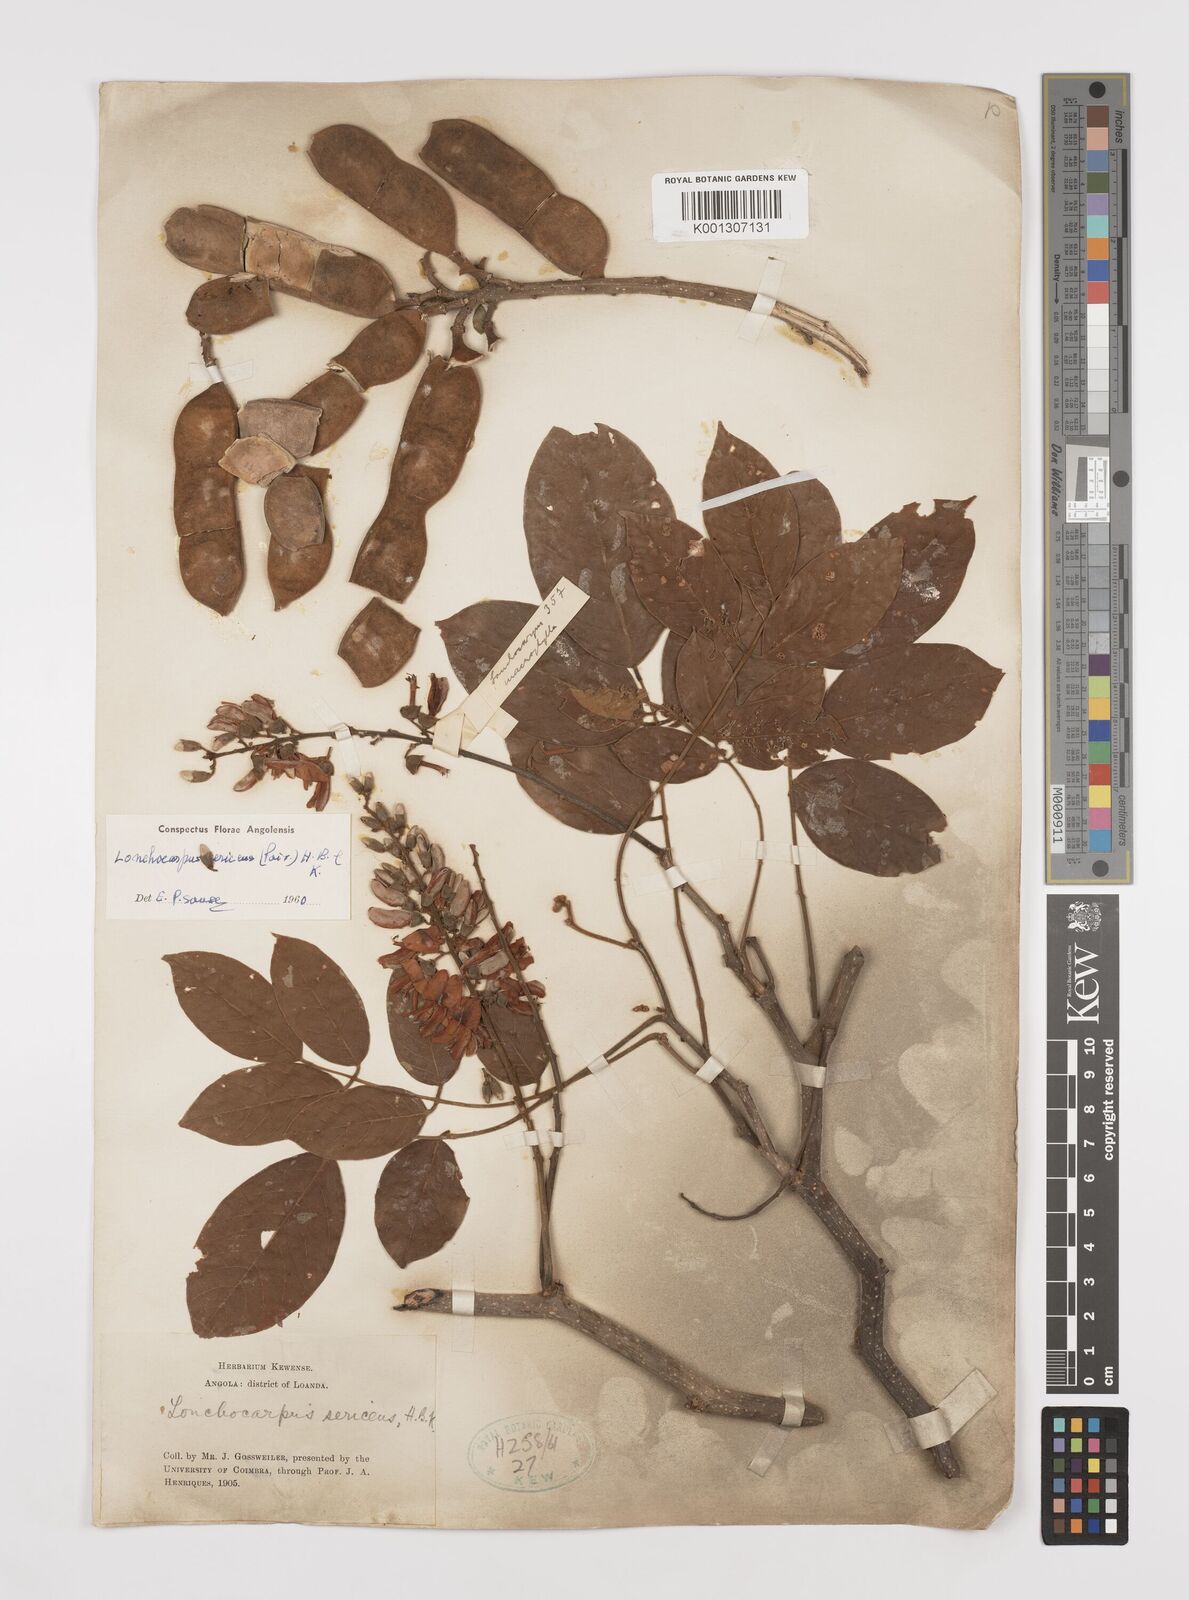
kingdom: Plantae
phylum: Tracheophyta
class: Magnoliopsida
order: Fabales
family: Fabaceae
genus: Lonchocarpus
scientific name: Lonchocarpus sericeus
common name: Savonette
